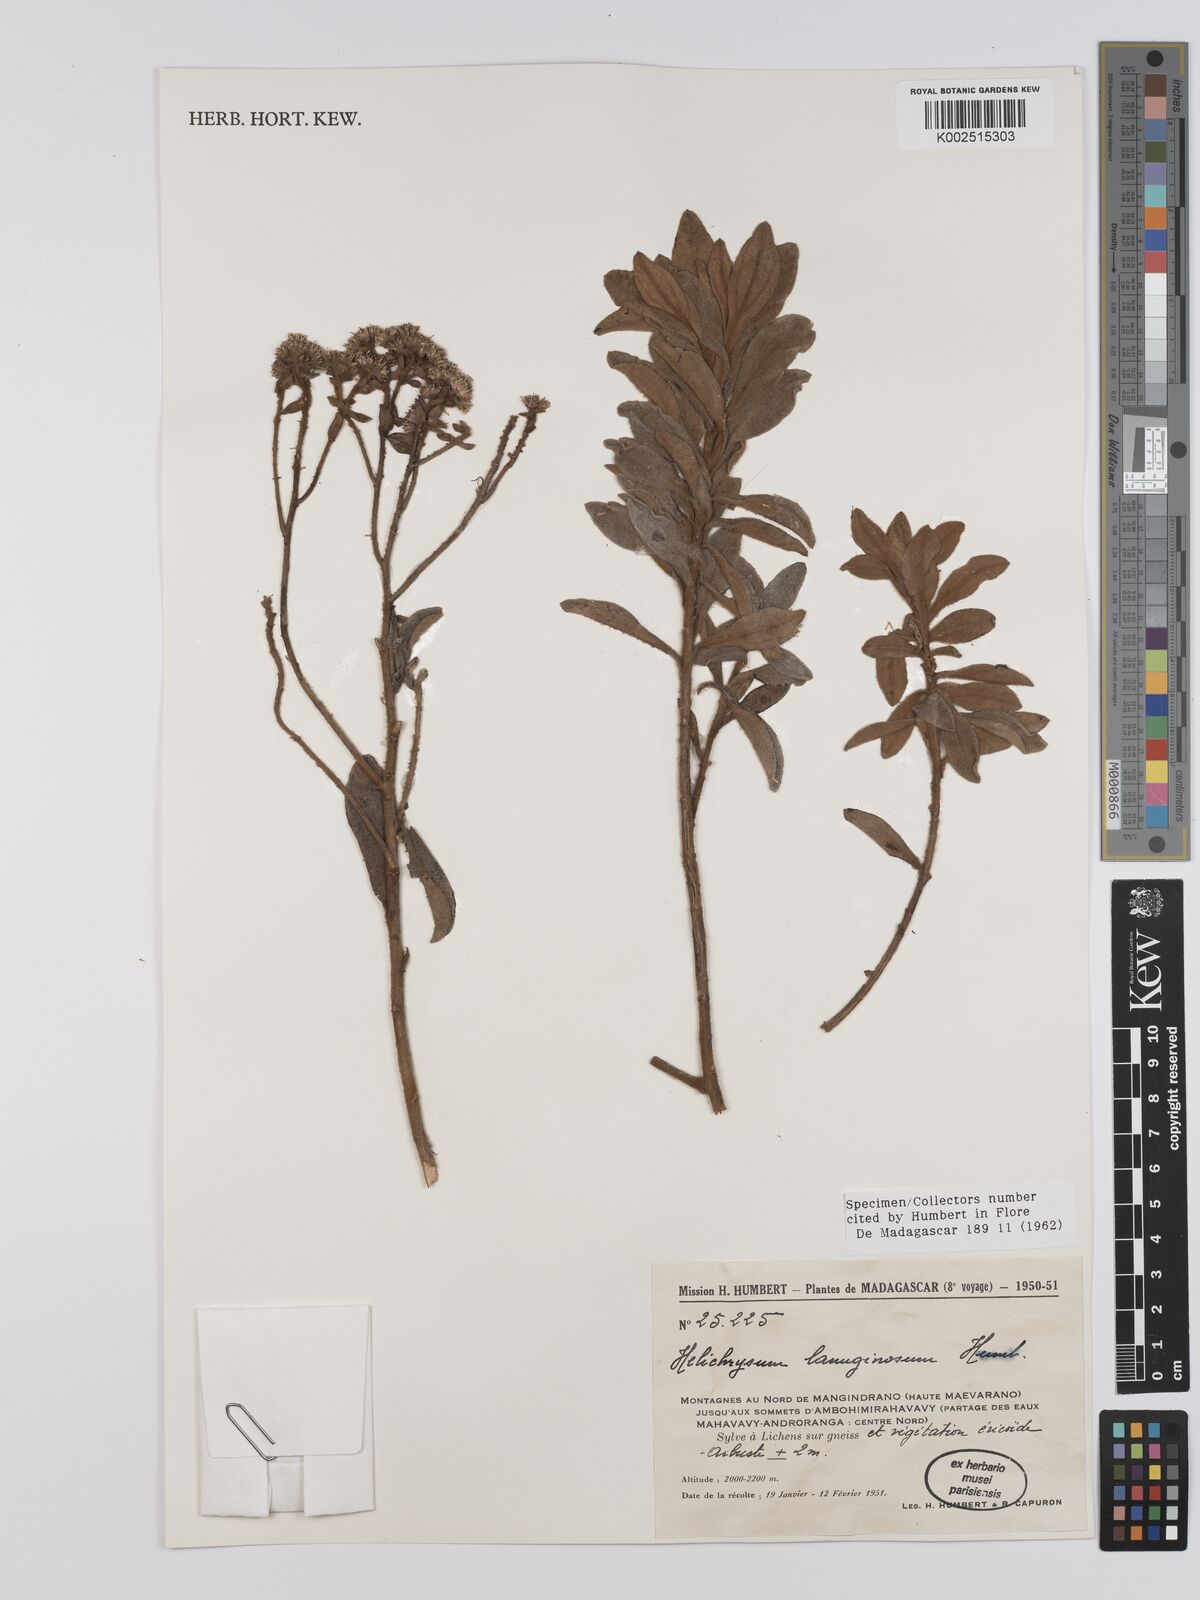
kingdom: Plantae
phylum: Tracheophyta
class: Magnoliopsida
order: Asterales
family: Asteraceae
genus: Helichrysum
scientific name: Helichrysum lanuginosum
